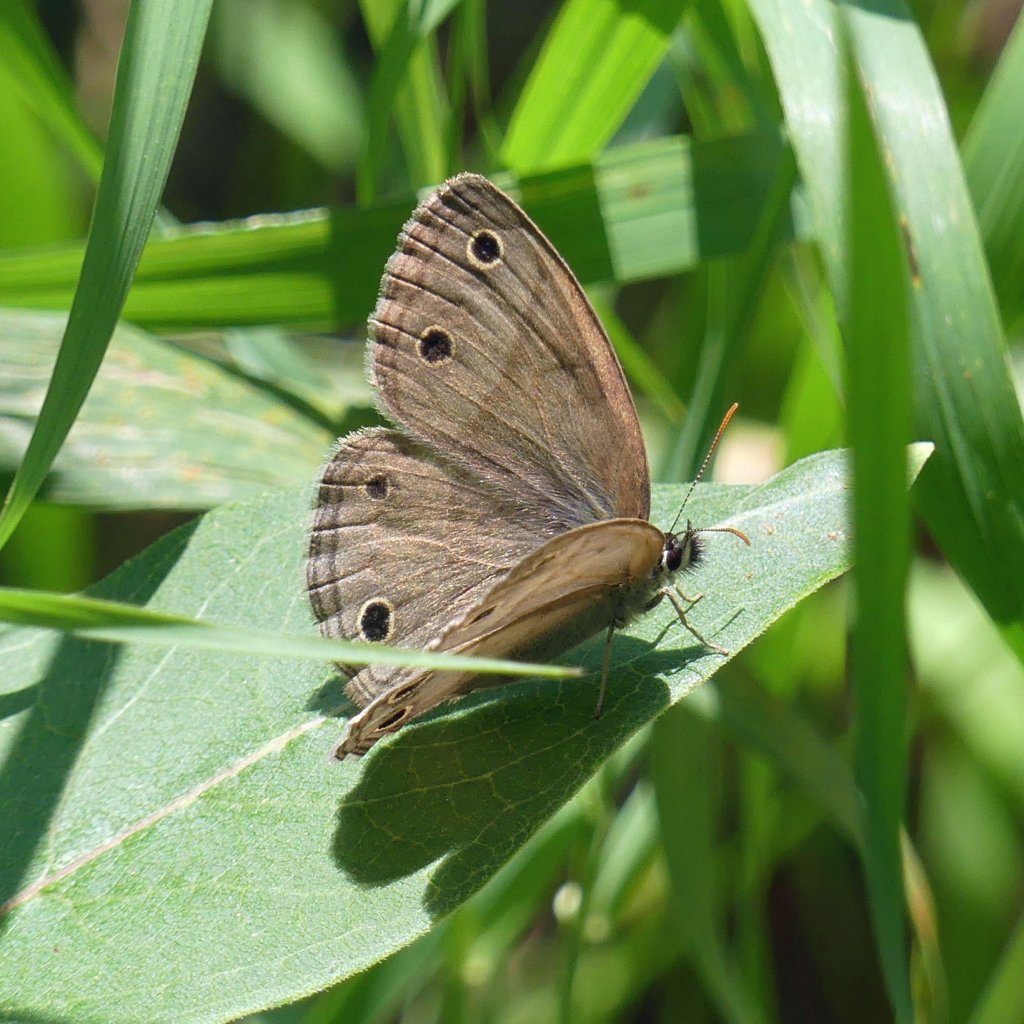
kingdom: Animalia
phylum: Arthropoda
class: Insecta
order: Lepidoptera
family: Nymphalidae
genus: Euptychia
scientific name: Euptychia cymela
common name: Little Wood Satyr
